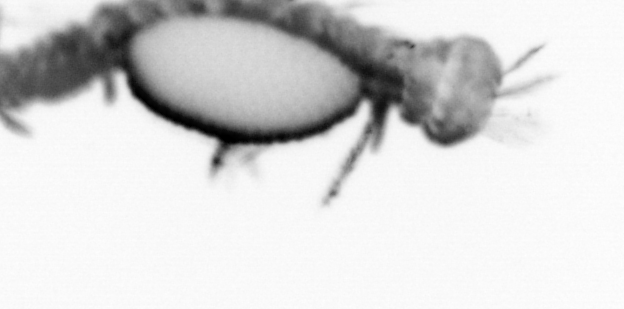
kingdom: Animalia
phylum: Annelida
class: Polychaeta
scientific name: Polychaeta
